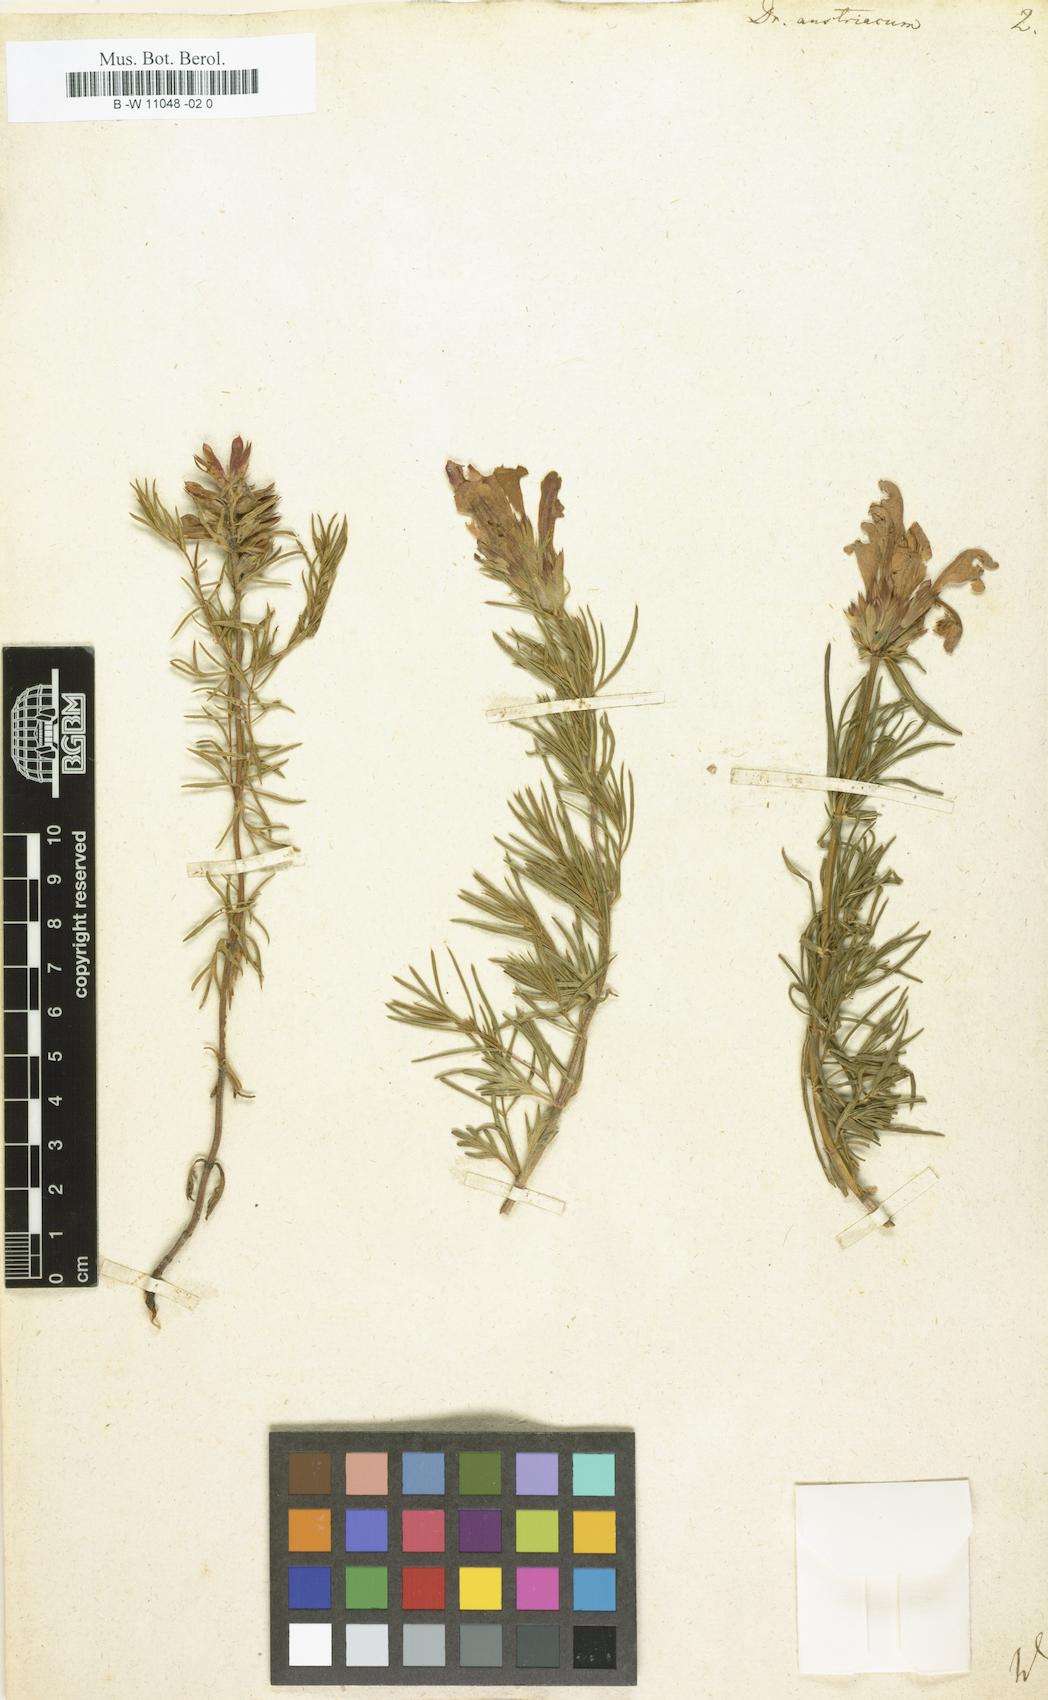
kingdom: Plantae
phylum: Tracheophyta
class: Magnoliopsida
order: Lamiales
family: Lamiaceae
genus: Dracocephalum
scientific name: Dracocephalum austriacum
